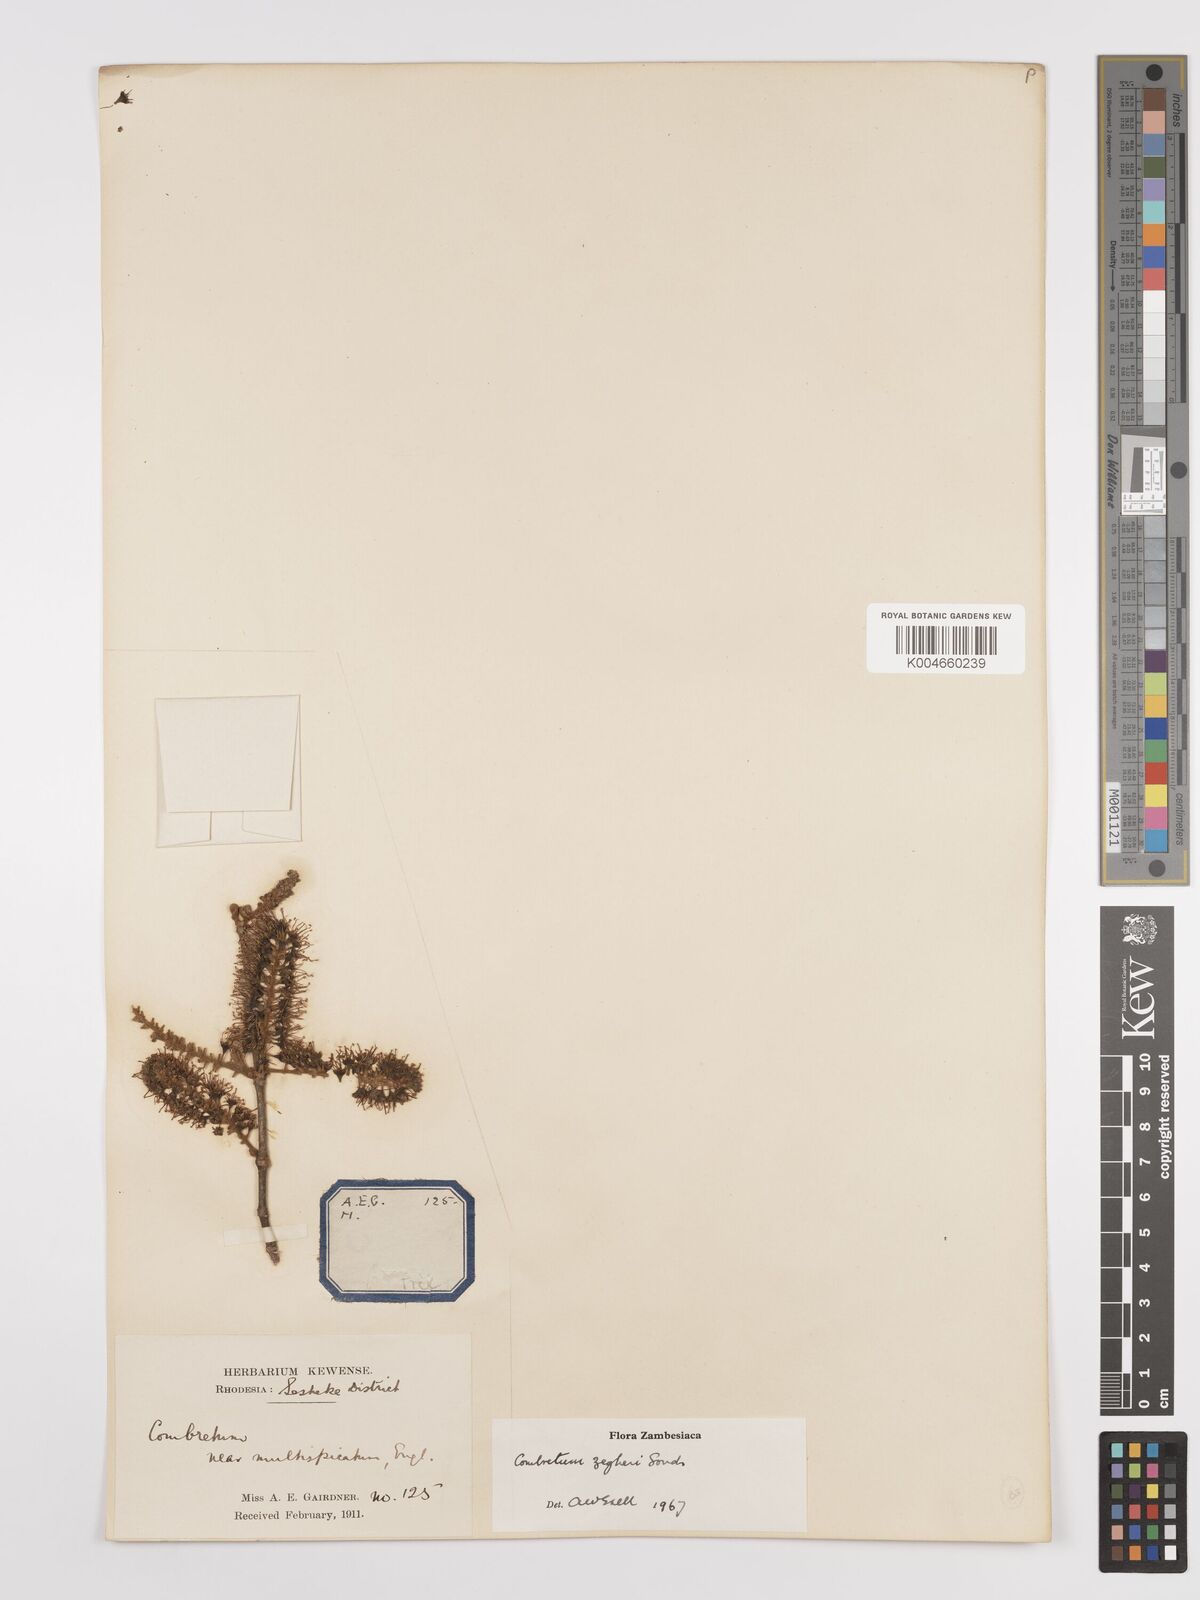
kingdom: Plantae
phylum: Tracheophyta
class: Magnoliopsida
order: Myrtales
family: Combretaceae
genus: Combretum
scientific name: Combretum zeyheri
